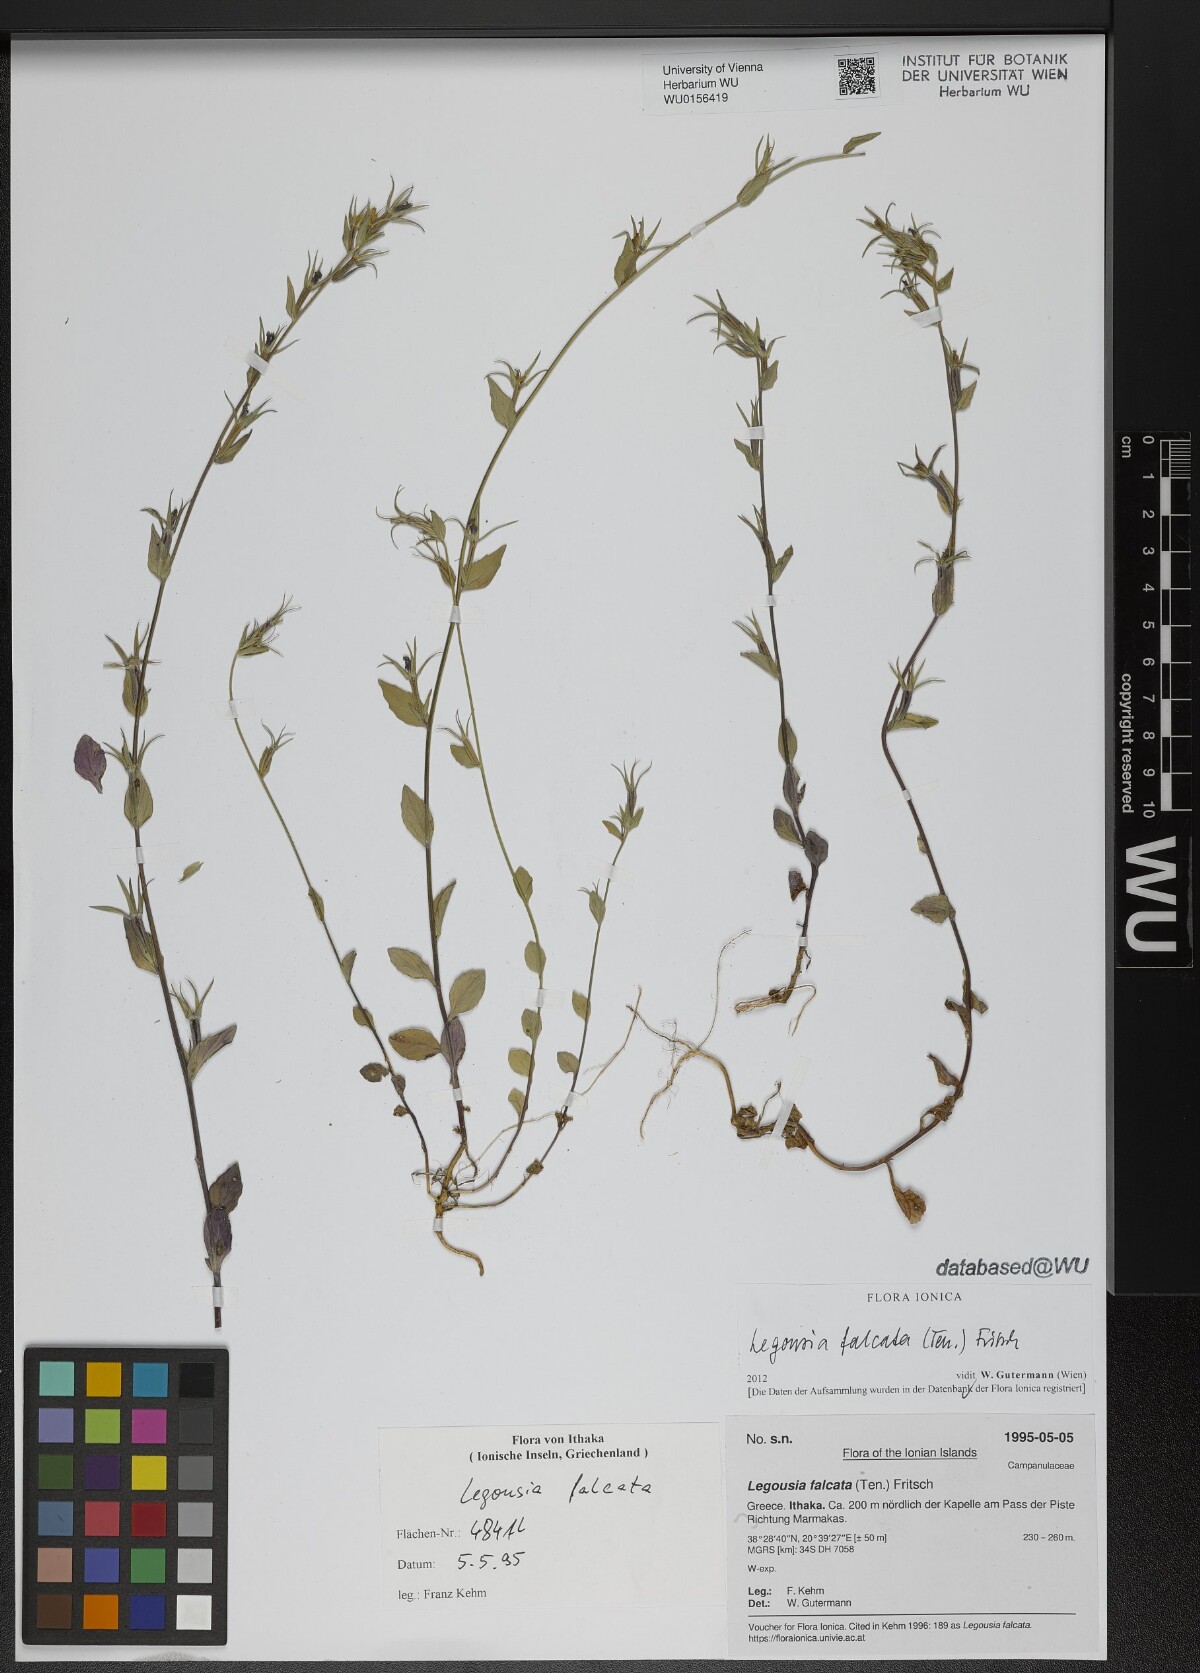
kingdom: Plantae
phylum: Tracheophyta
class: Magnoliopsida
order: Asterales
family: Campanulaceae
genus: Legousia
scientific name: Legousia falcata
